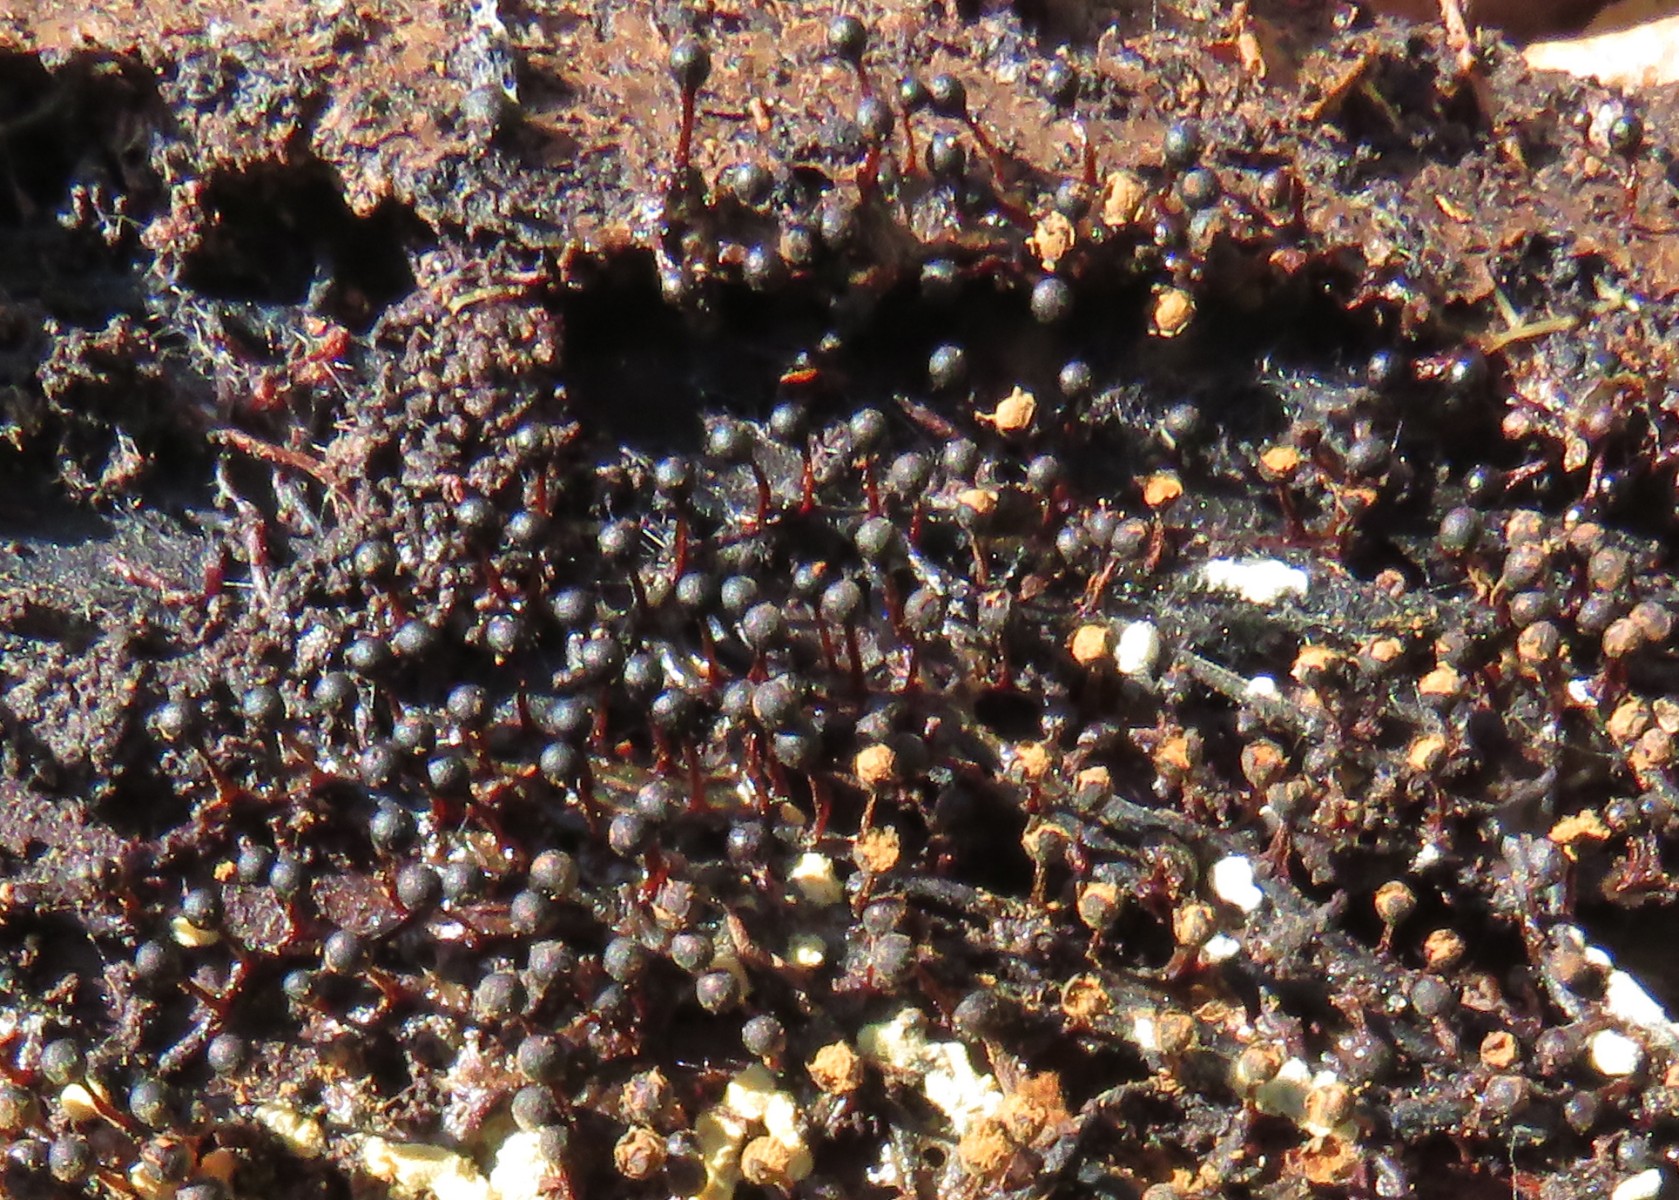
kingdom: Protozoa
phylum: Mycetozoa
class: Myxomycetes
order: Trichiales
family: Trichiaceae
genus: Metatrichia
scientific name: Metatrichia floriformis
